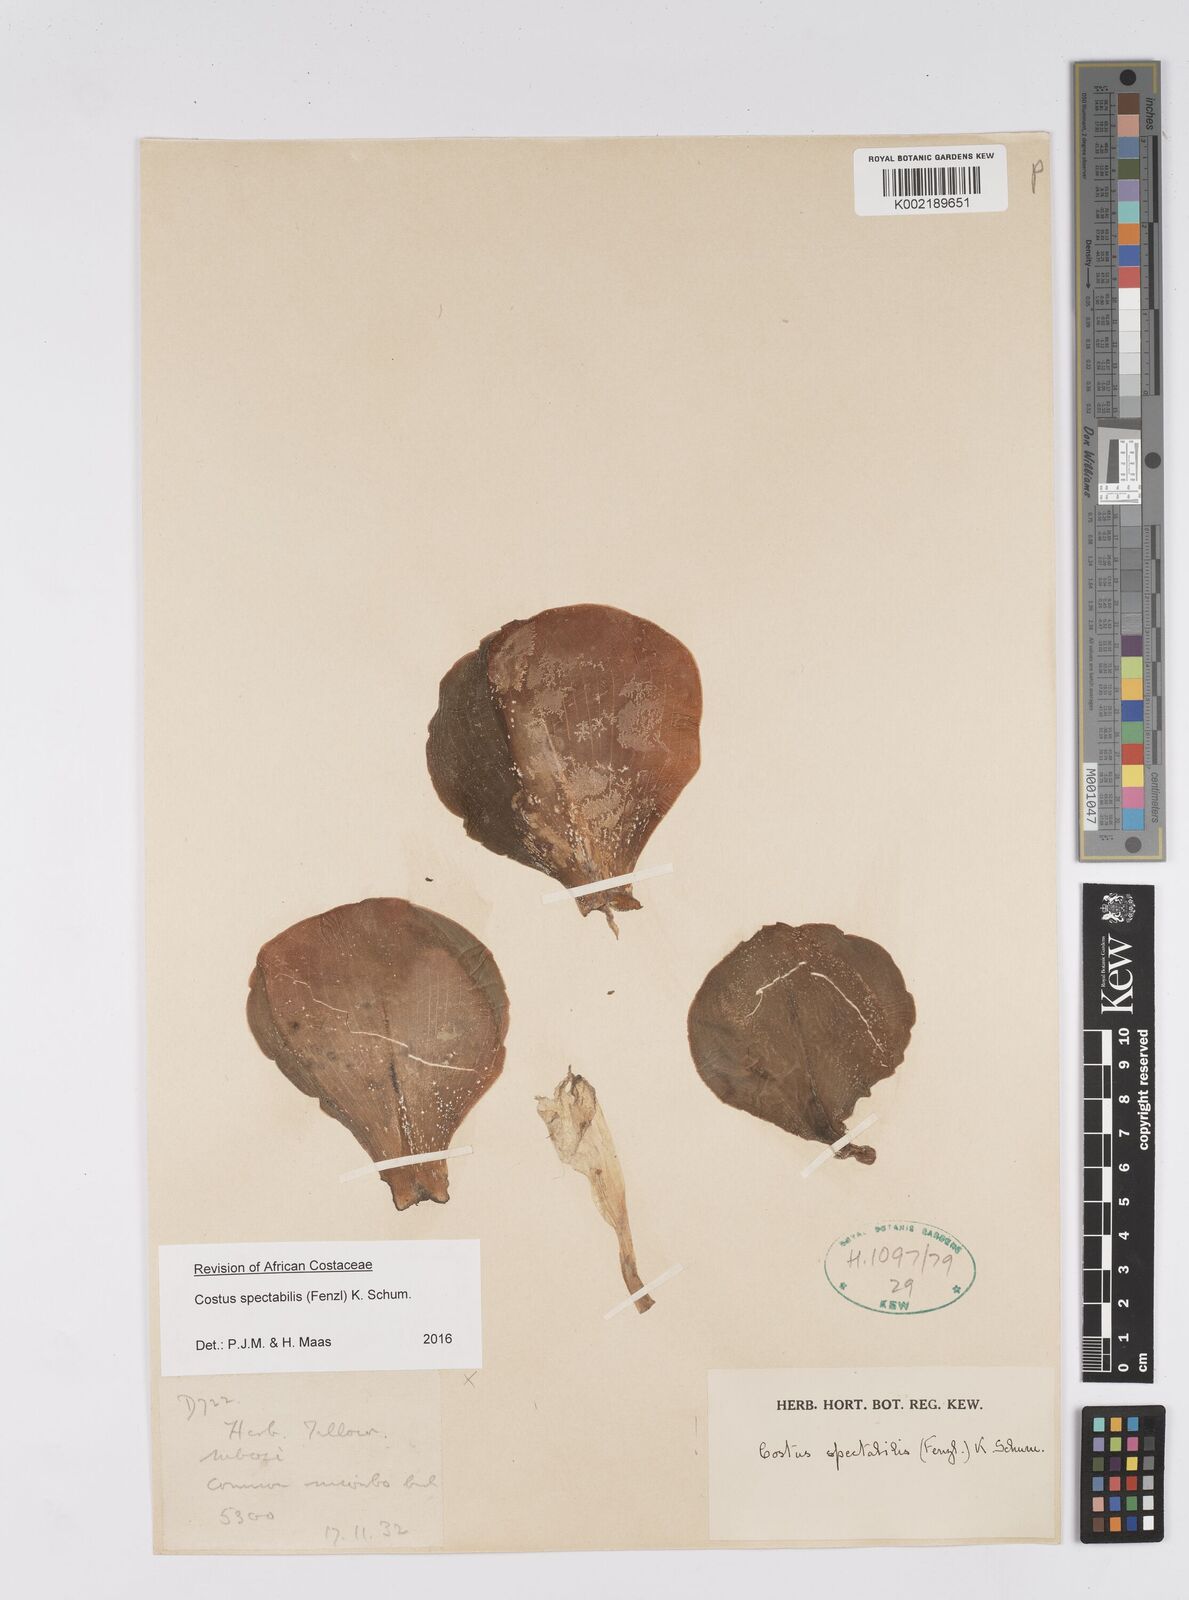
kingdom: Plantae
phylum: Tracheophyta
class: Liliopsida
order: Zingiberales
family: Costaceae
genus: Costus
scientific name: Costus spectabilis
